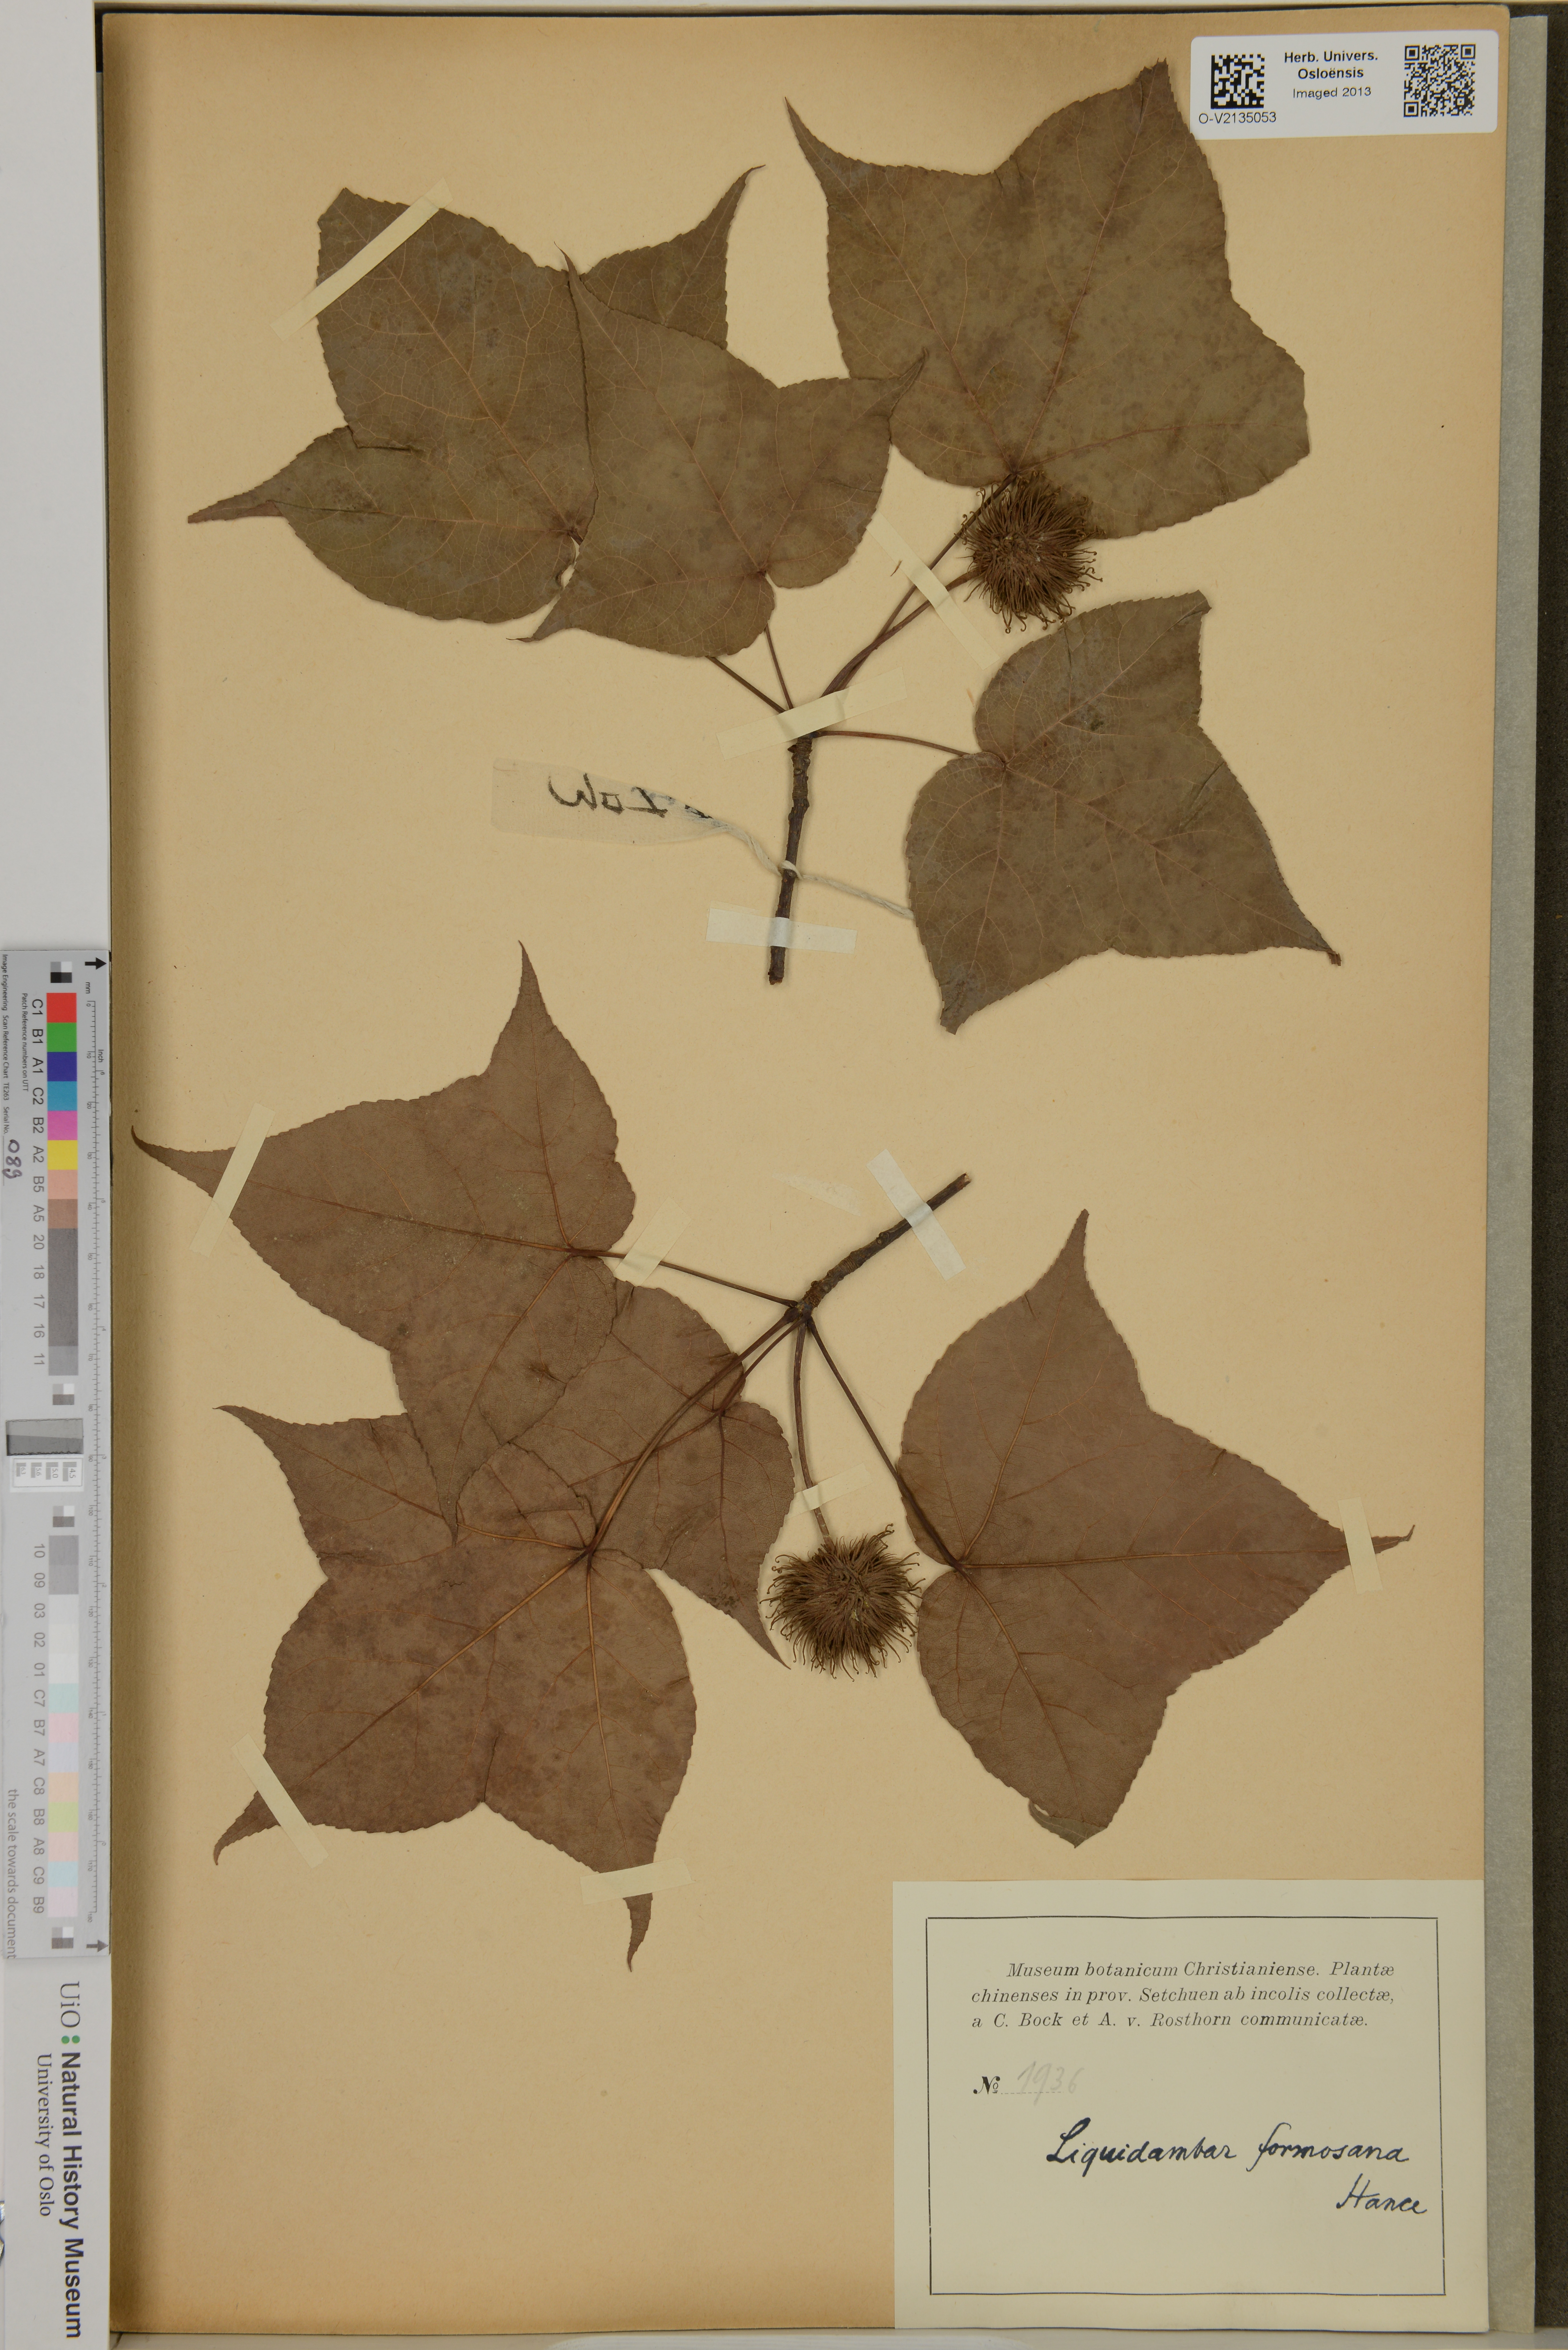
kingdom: Plantae
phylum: Tracheophyta
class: Magnoliopsida
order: Saxifragales
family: Altingiaceae
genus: Liquidambar
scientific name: Liquidambar formosana
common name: Chinese sweet gum
